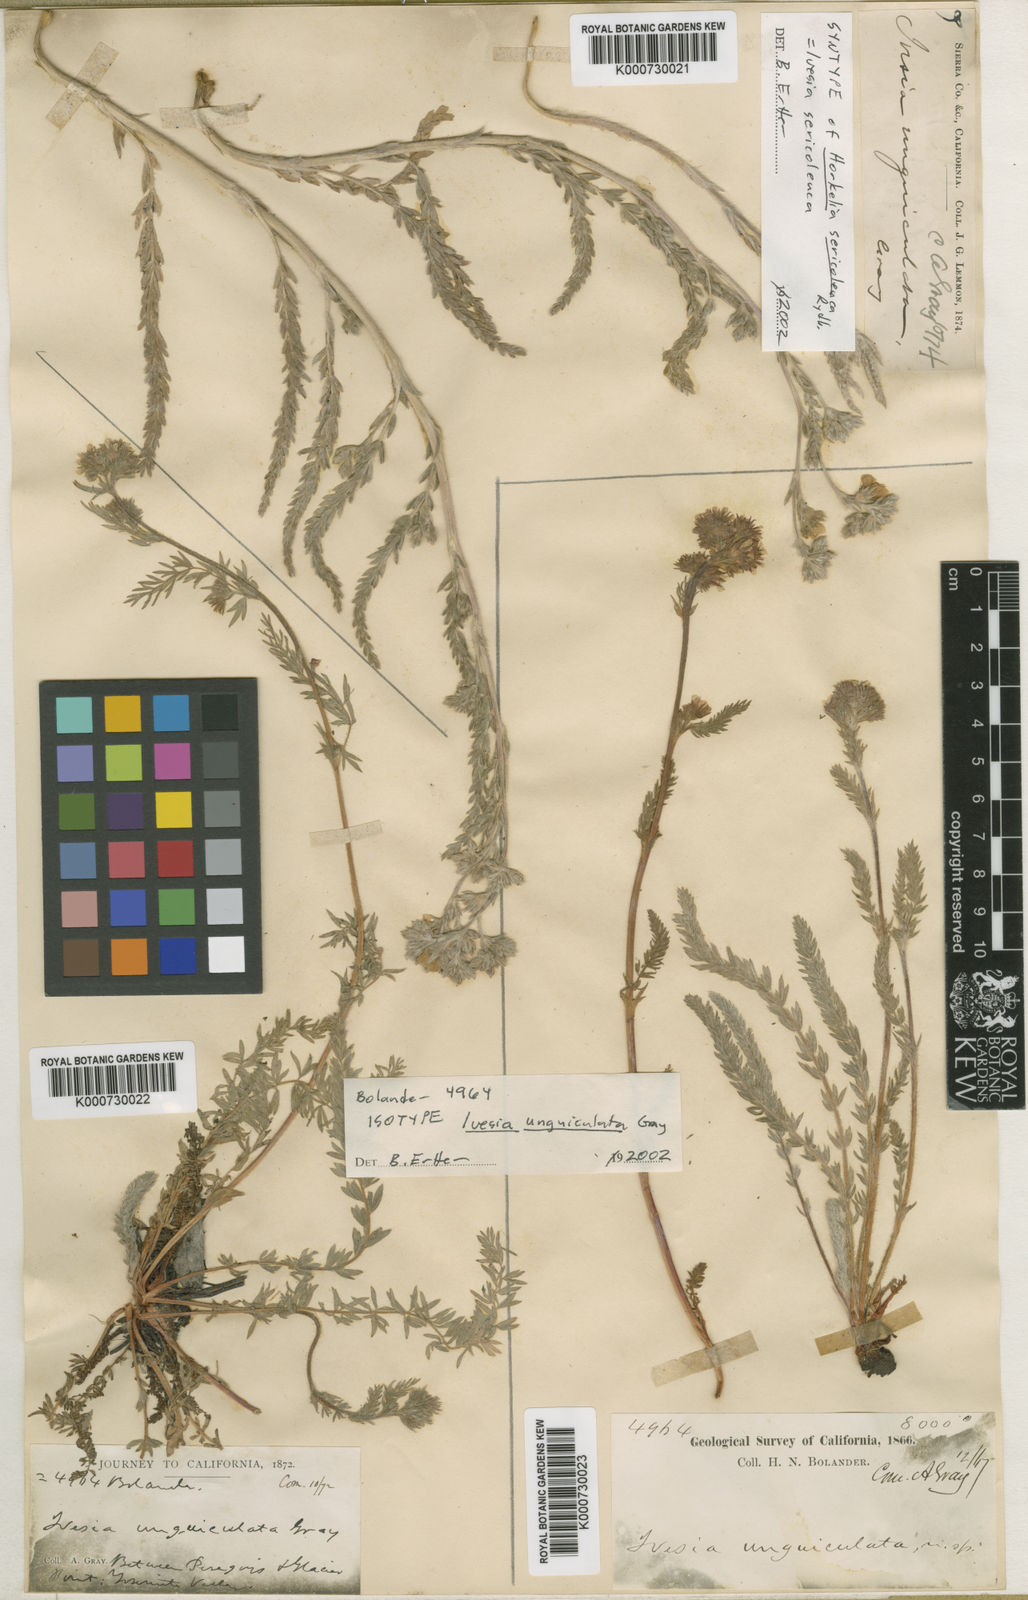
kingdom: Plantae
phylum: Tracheophyta
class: Magnoliopsida
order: Rosales
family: Rosaceae
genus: Potentilla
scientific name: Potentilla unguiculata
